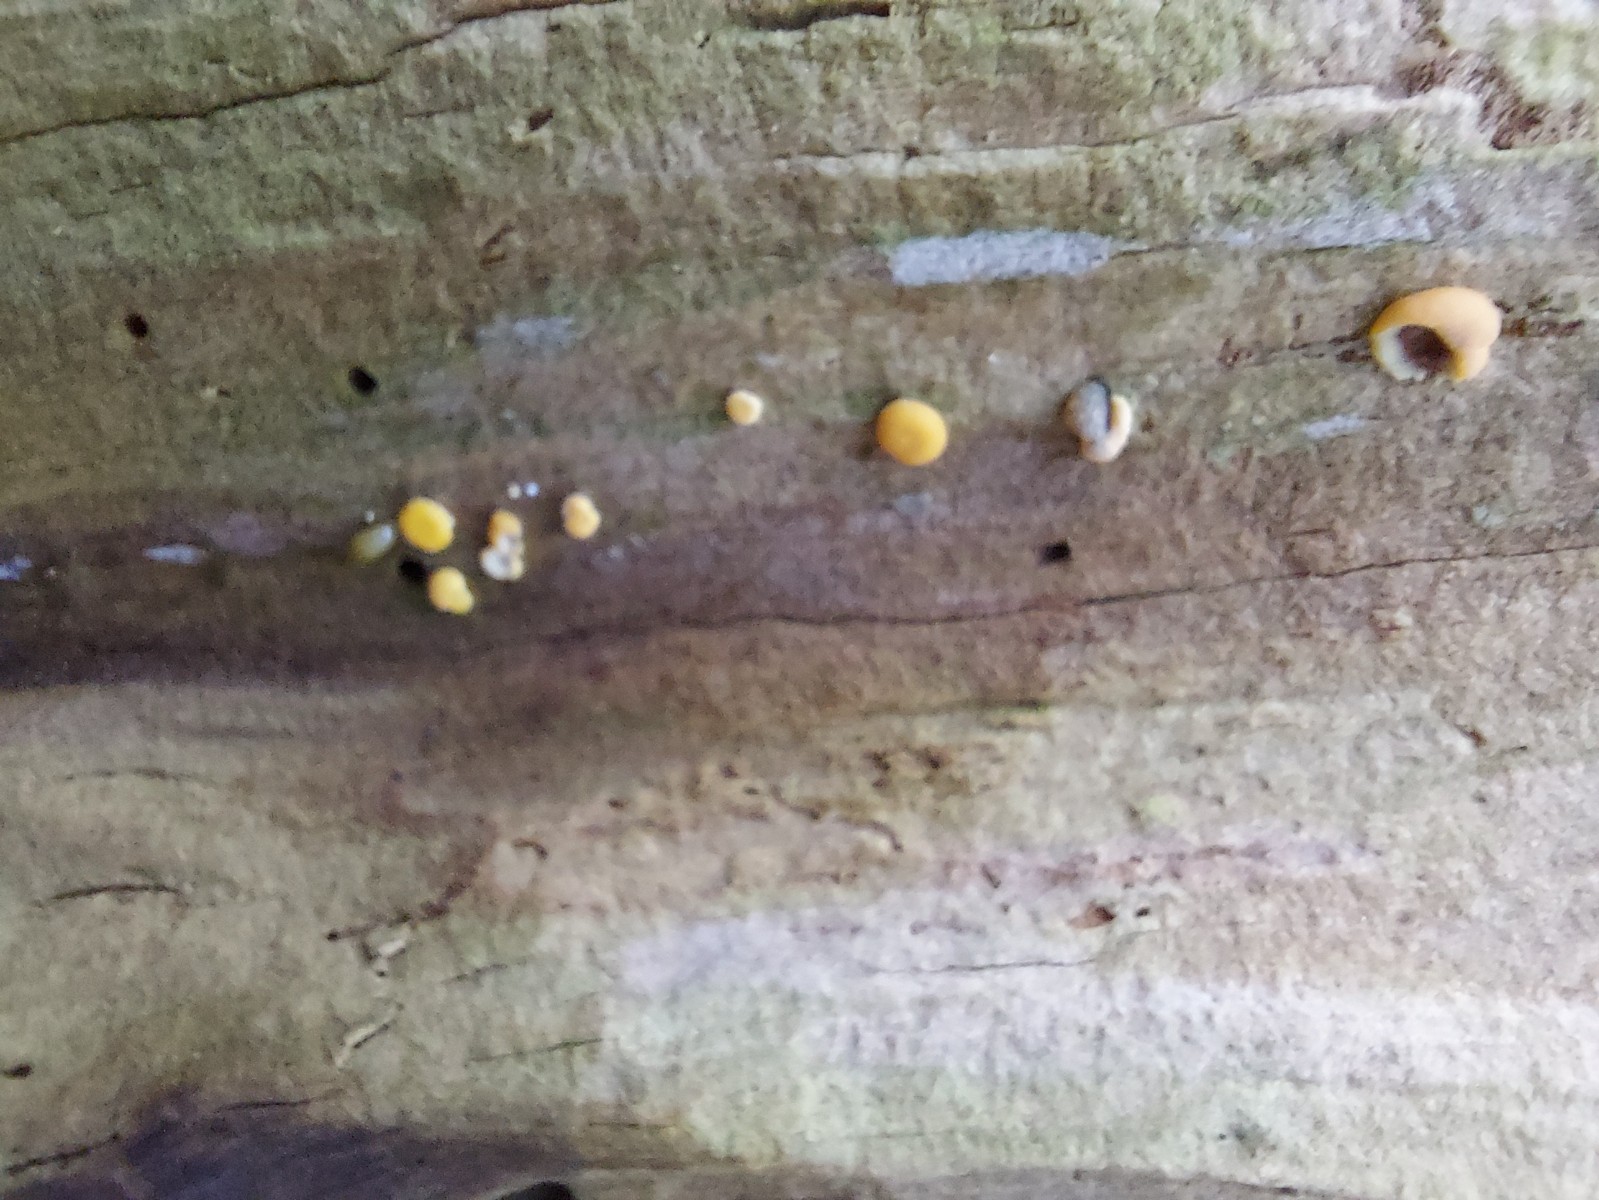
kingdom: Fungi
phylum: Ascomycota
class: Sordariomycetes
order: Hypocreales
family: Hypocreaceae
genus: Trichoderma
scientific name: Trichoderma aureoviride
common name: æggegul kødkerne
